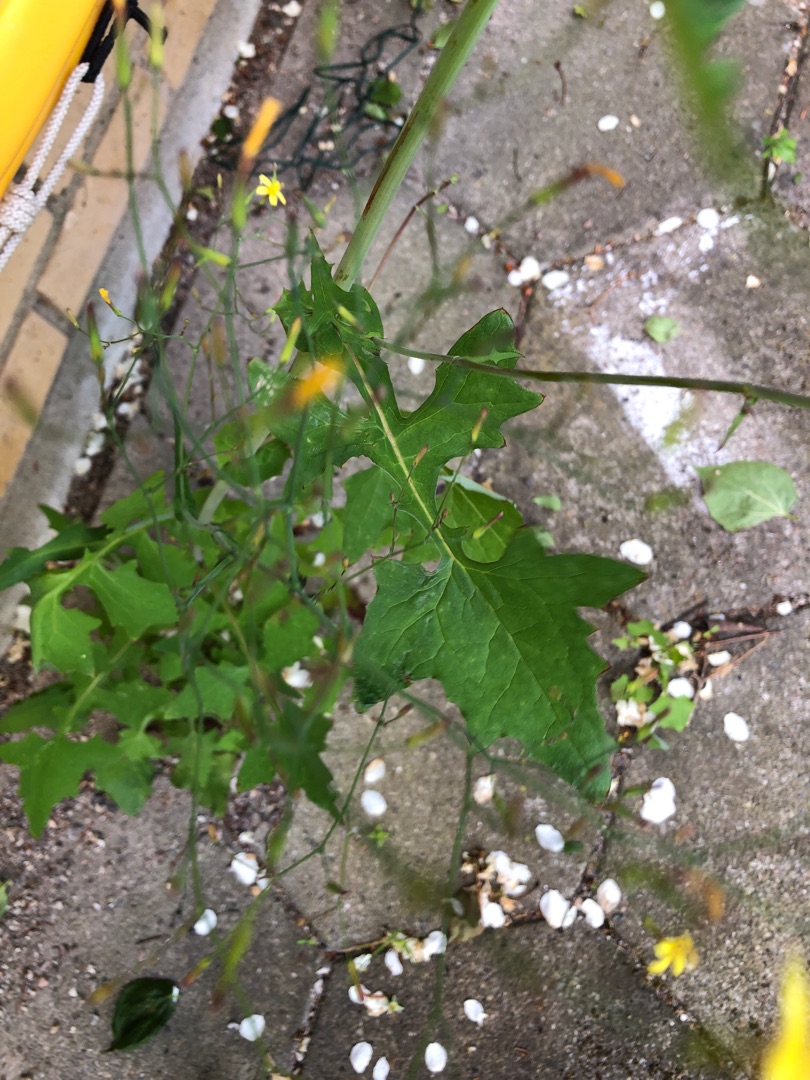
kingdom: Plantae
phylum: Tracheophyta
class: Magnoliopsida
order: Asterales
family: Asteraceae
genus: Mycelis
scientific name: Mycelis muralis
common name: Skov-salat
